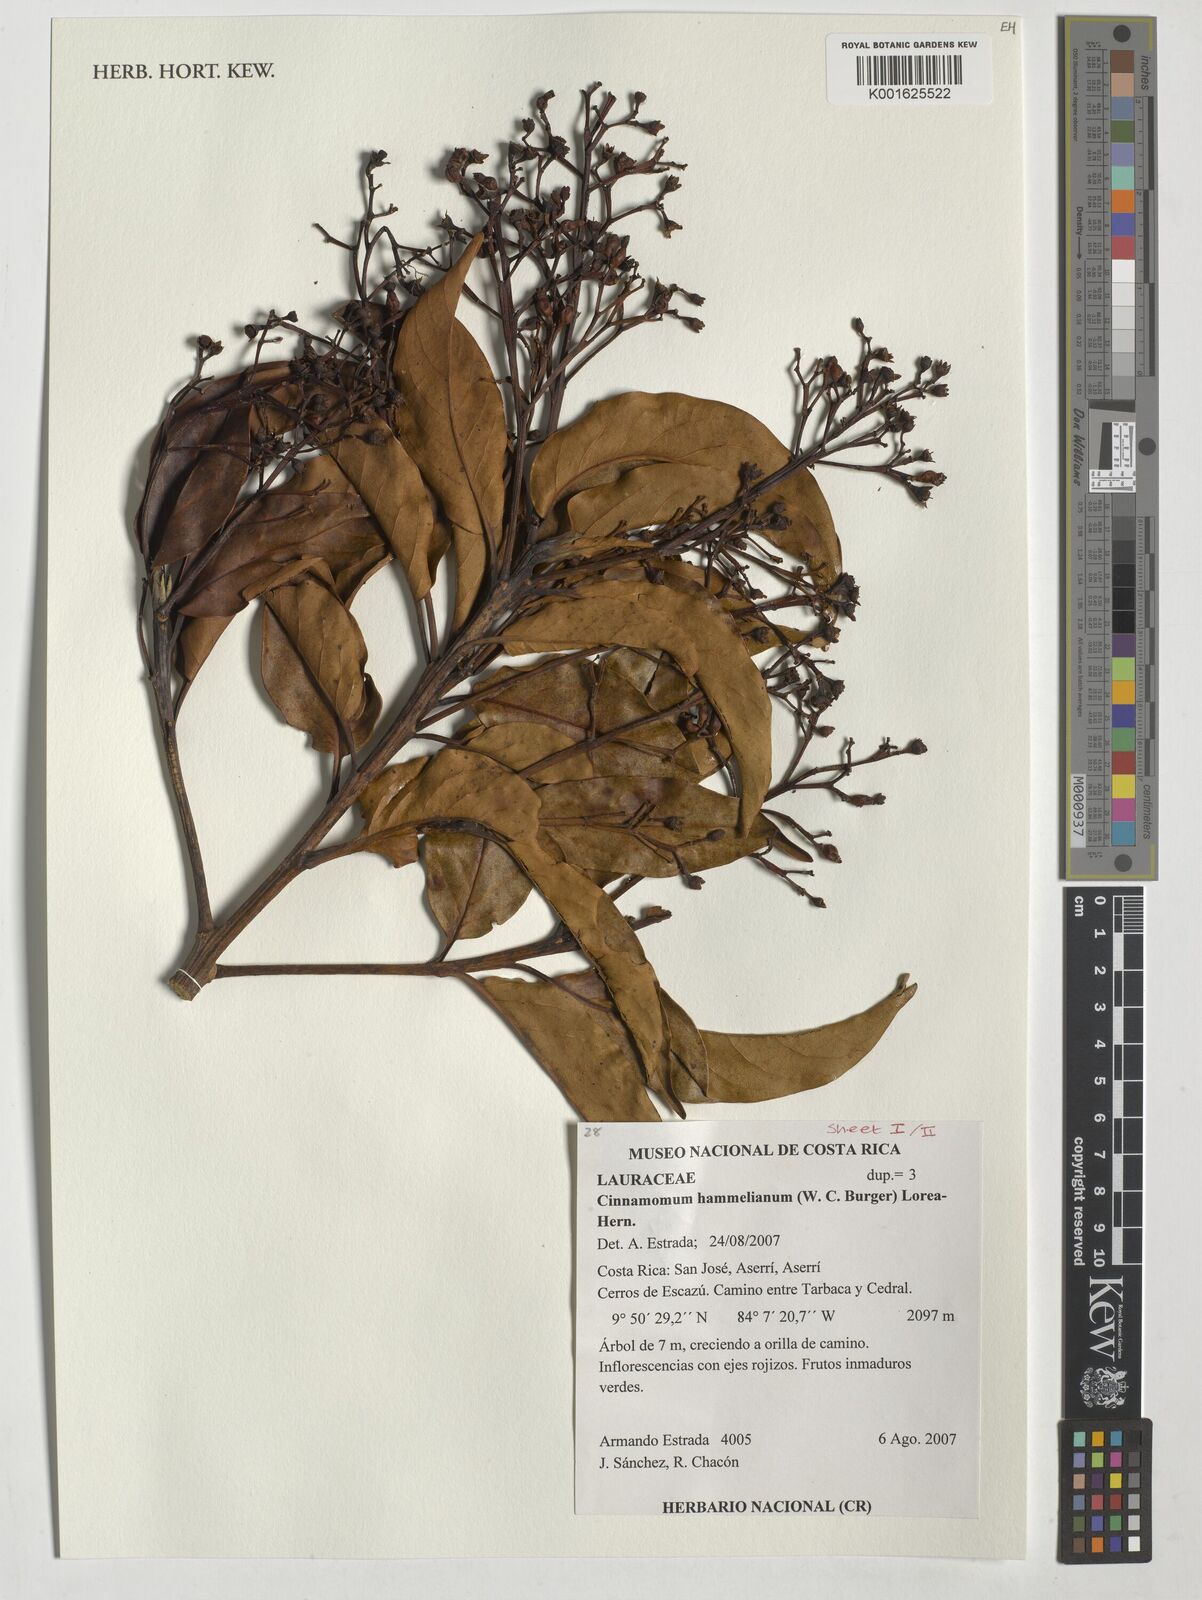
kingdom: Plantae
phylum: Tracheophyta
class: Magnoliopsida
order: Laurales
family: Lauraceae
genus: Cinnamomum
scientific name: Cinnamomum
